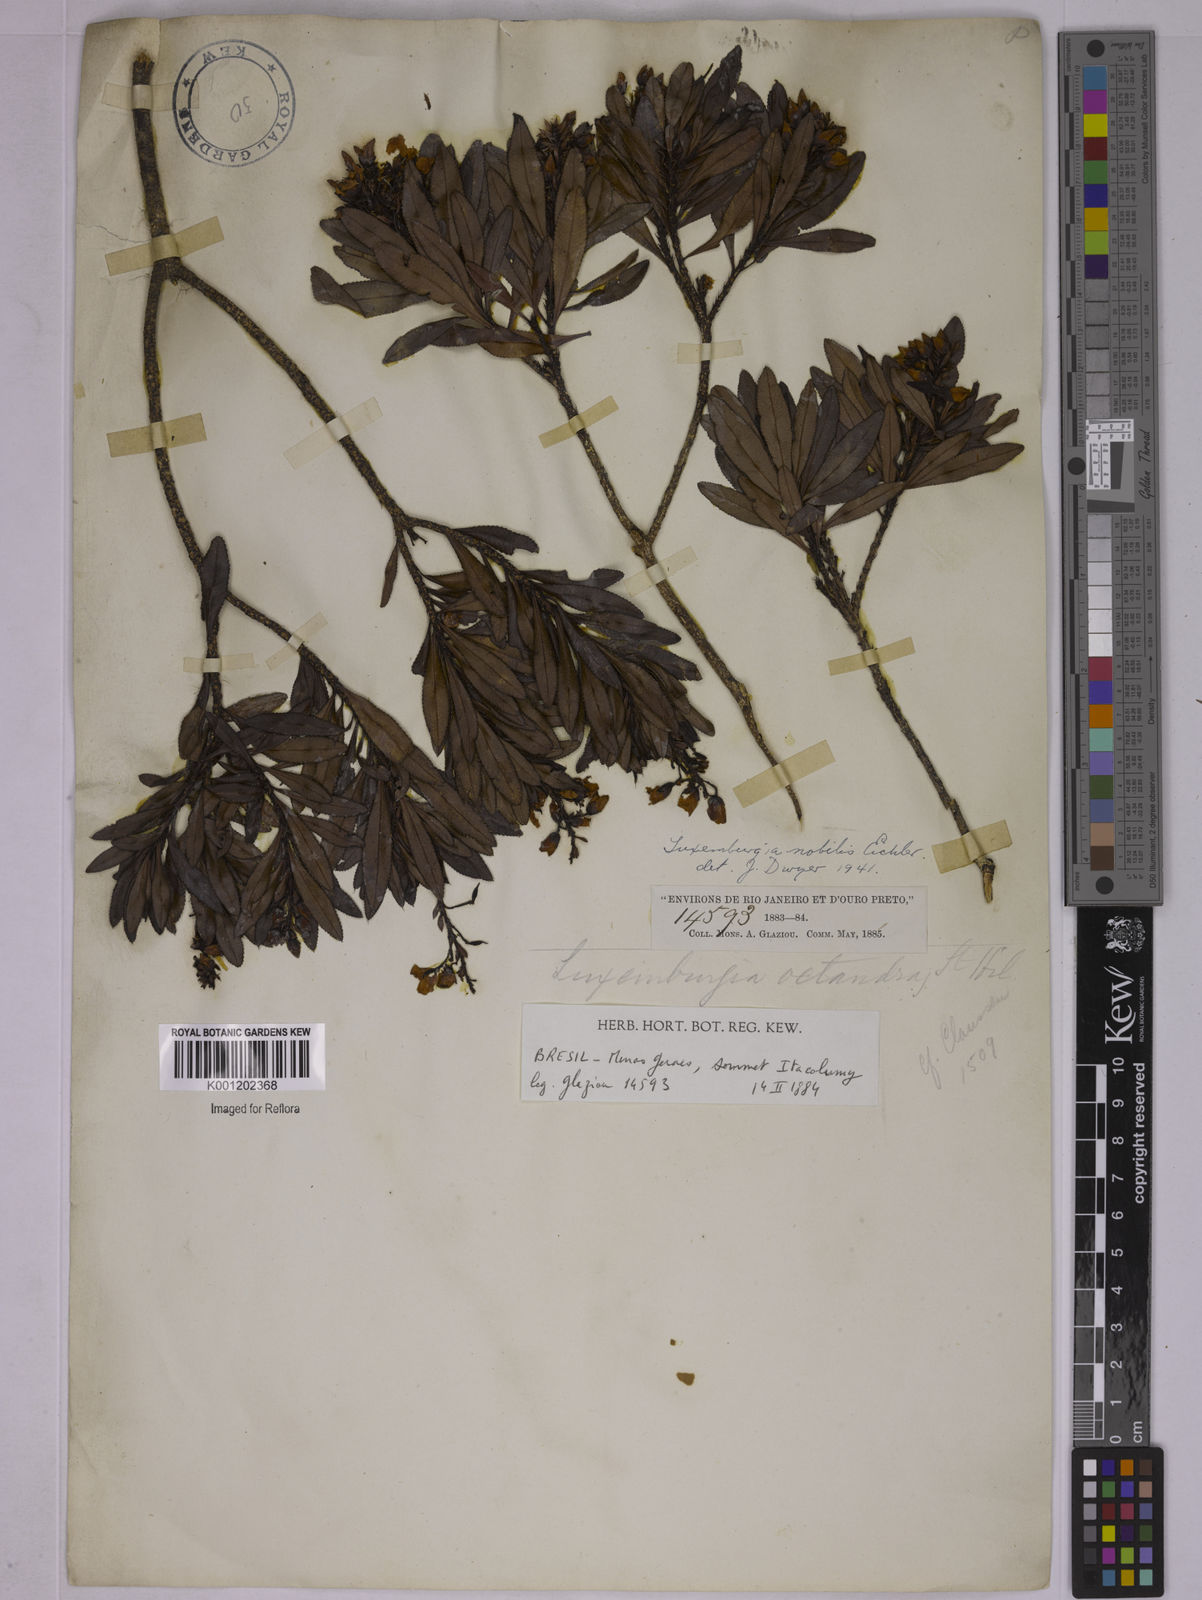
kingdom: Plantae
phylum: Tracheophyta
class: Magnoliopsida
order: Malpighiales
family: Ochnaceae
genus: Luxemburgia
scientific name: Luxemburgia nobilis
